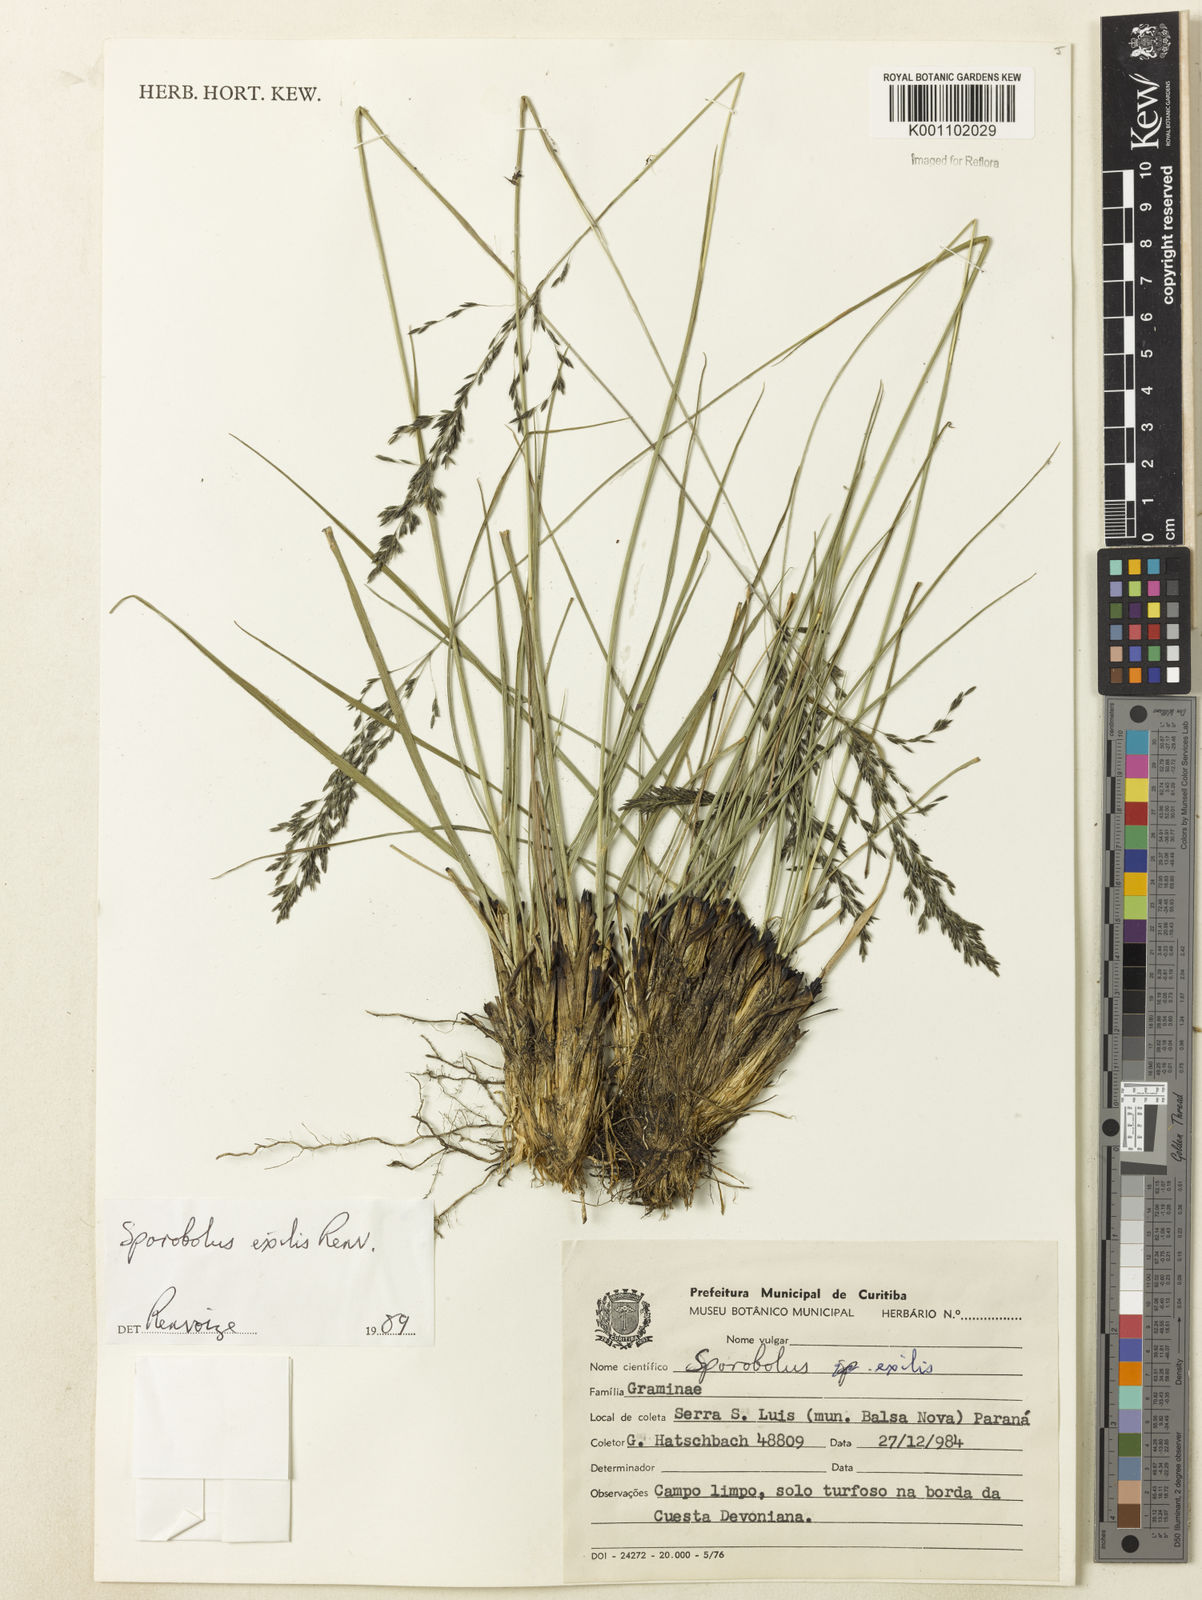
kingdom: Plantae
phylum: Tracheophyta
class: Liliopsida
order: Poales
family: Poaceae
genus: Sporobolus
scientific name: Sporobolus linearifolius
